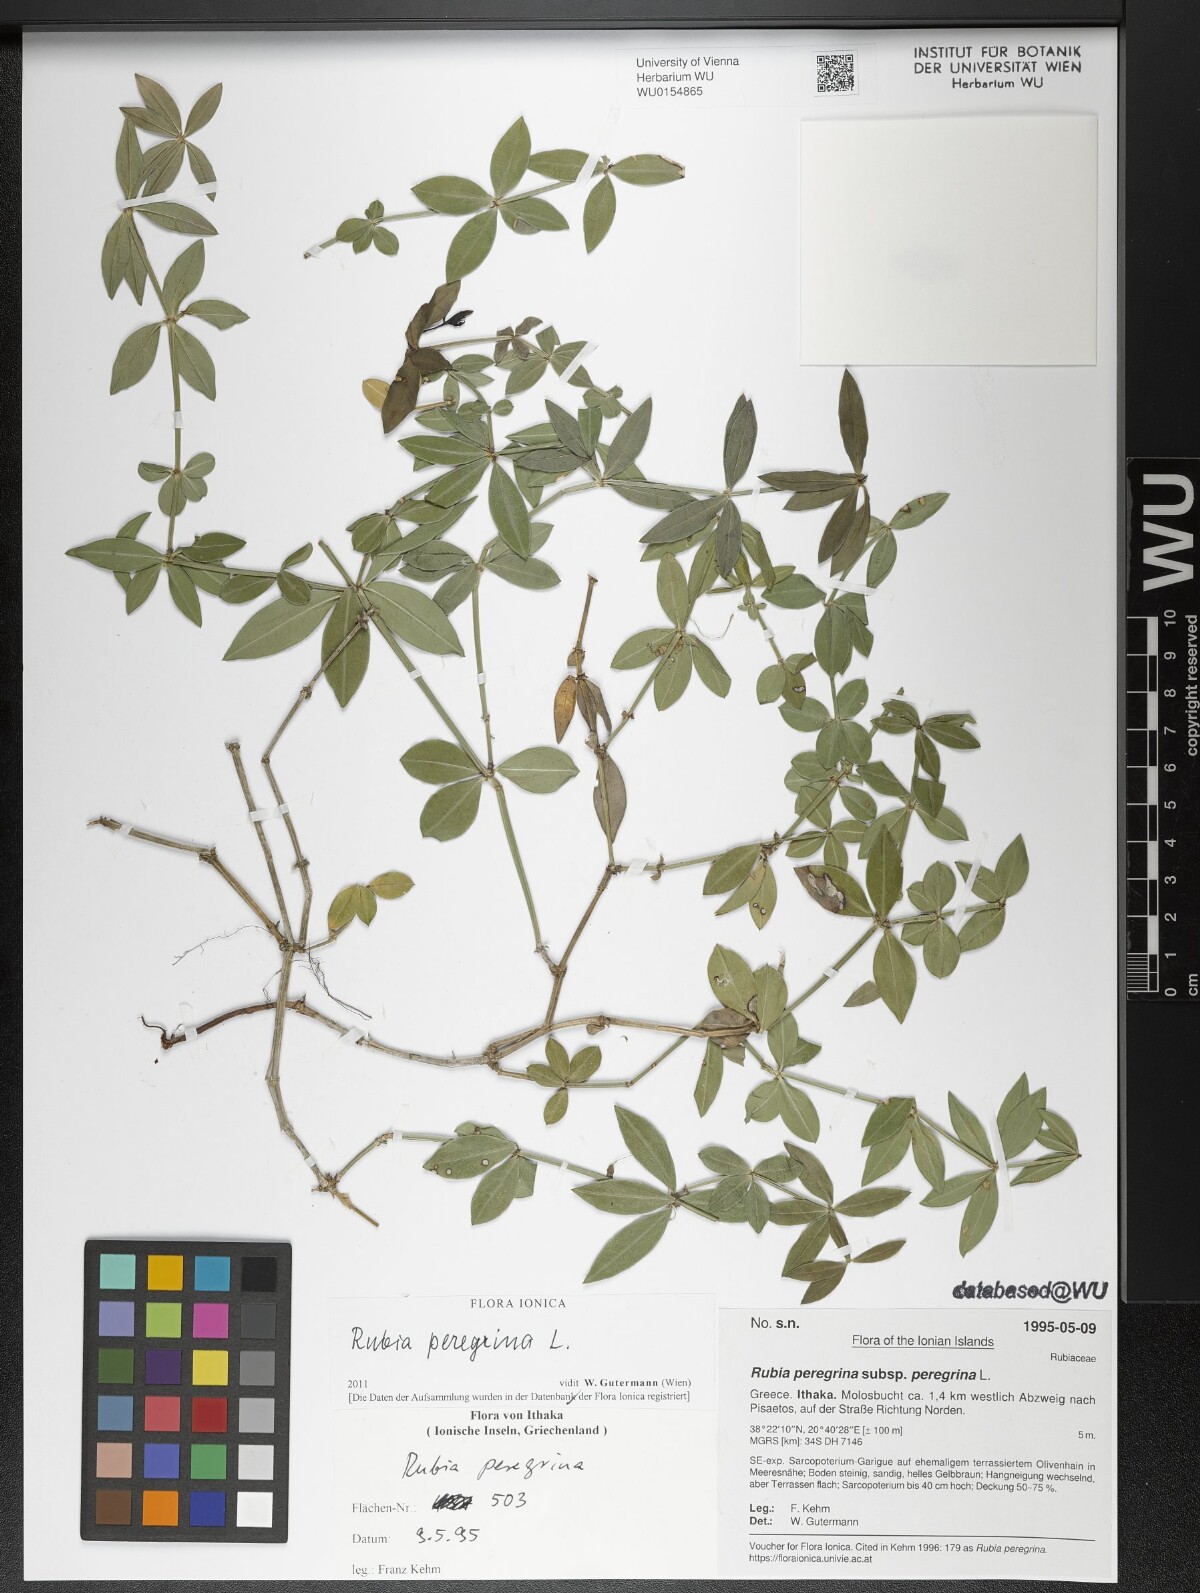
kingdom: Plantae
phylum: Tracheophyta
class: Magnoliopsida
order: Gentianales
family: Rubiaceae
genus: Rubia
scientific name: Rubia peregrina
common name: Wild madder
